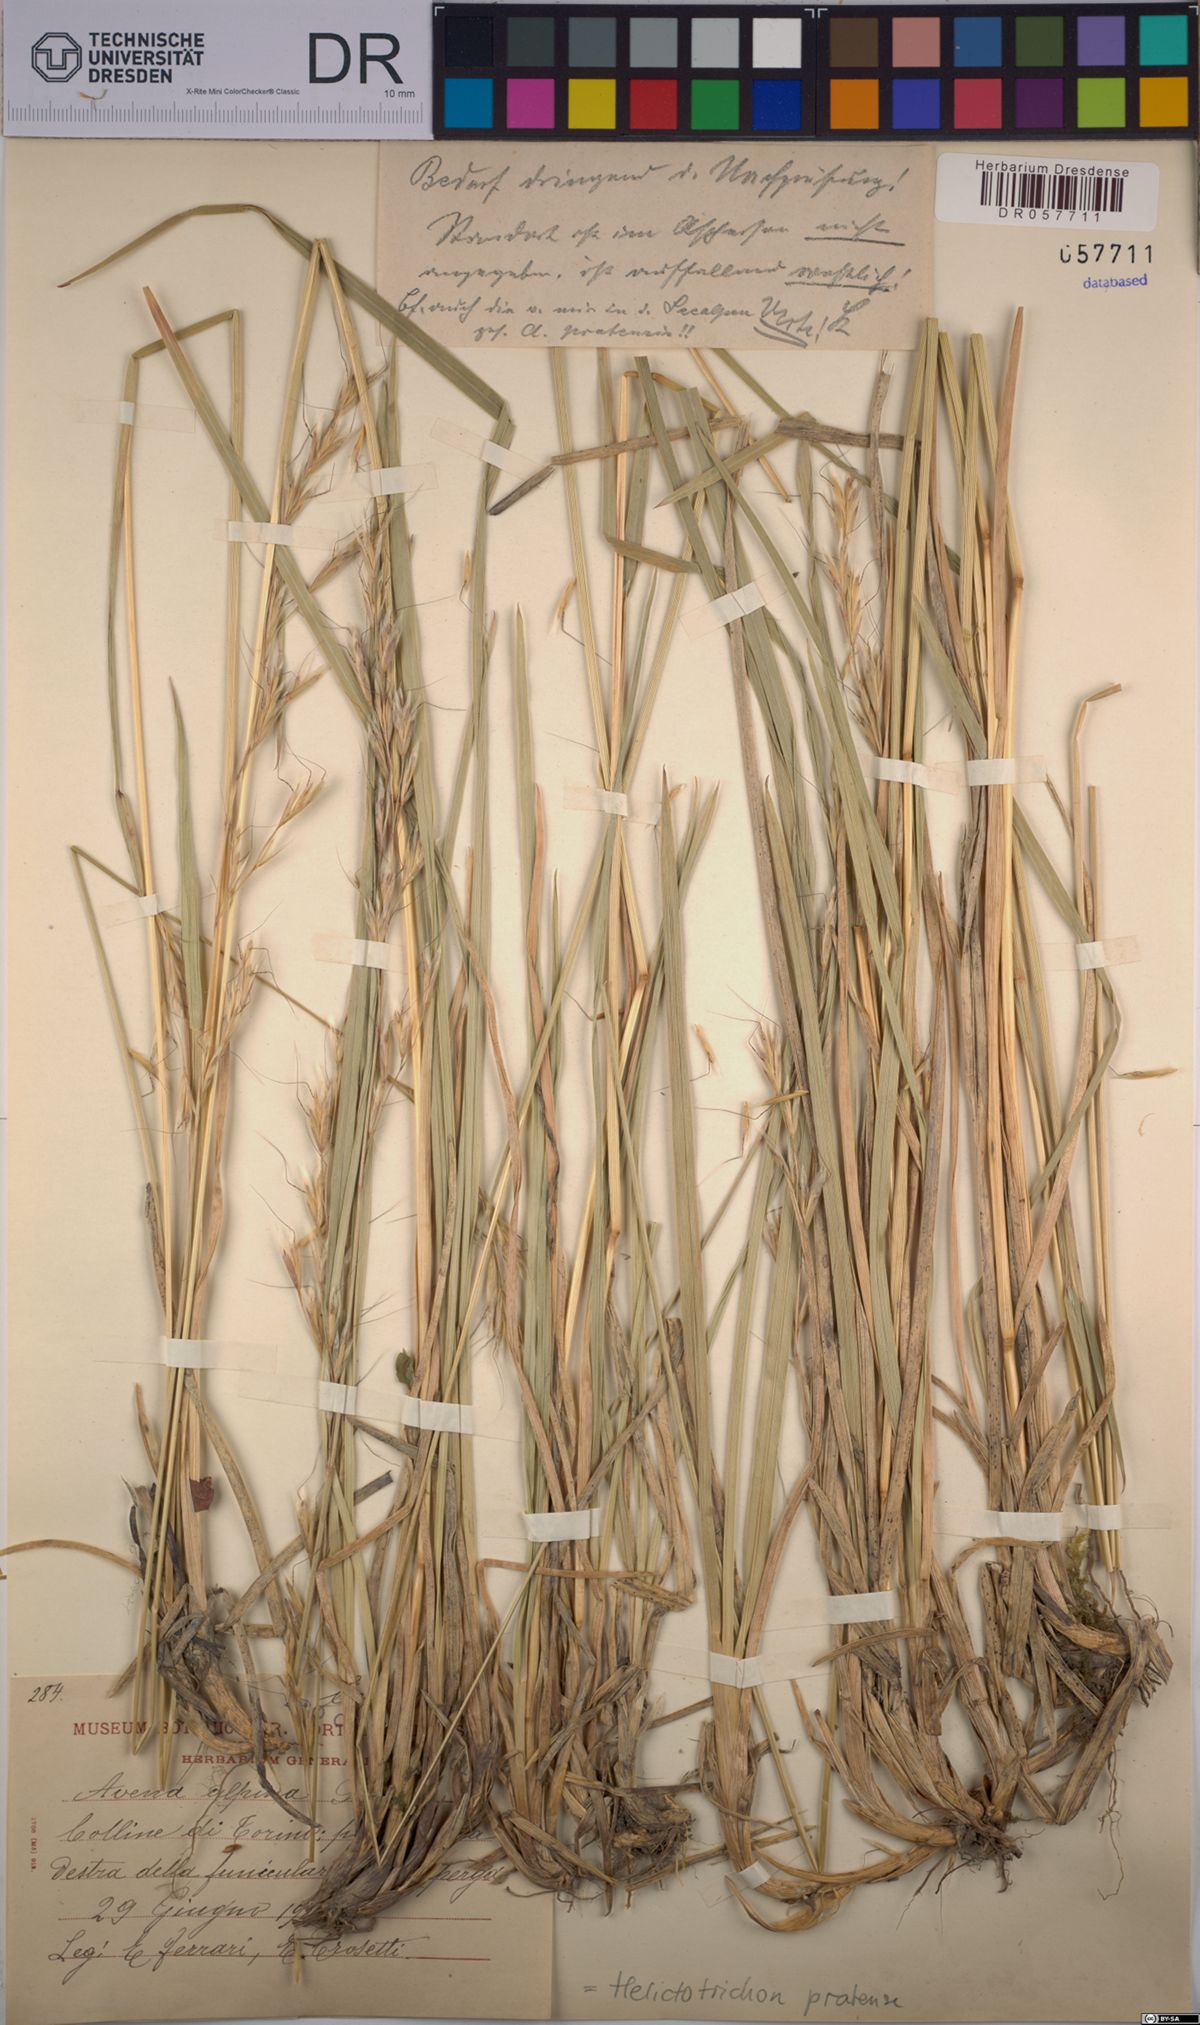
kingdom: Plantae
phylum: Tracheophyta
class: Liliopsida
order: Poales
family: Poaceae
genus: Helictochloa
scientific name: Helictochloa pratensis
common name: Meadow oat grass
